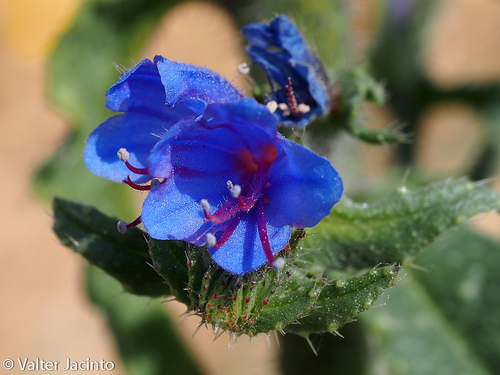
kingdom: Plantae
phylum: Tracheophyta
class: Magnoliopsida
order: Boraginales
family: Boraginaceae
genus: Echium
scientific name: Echium gaditanum
